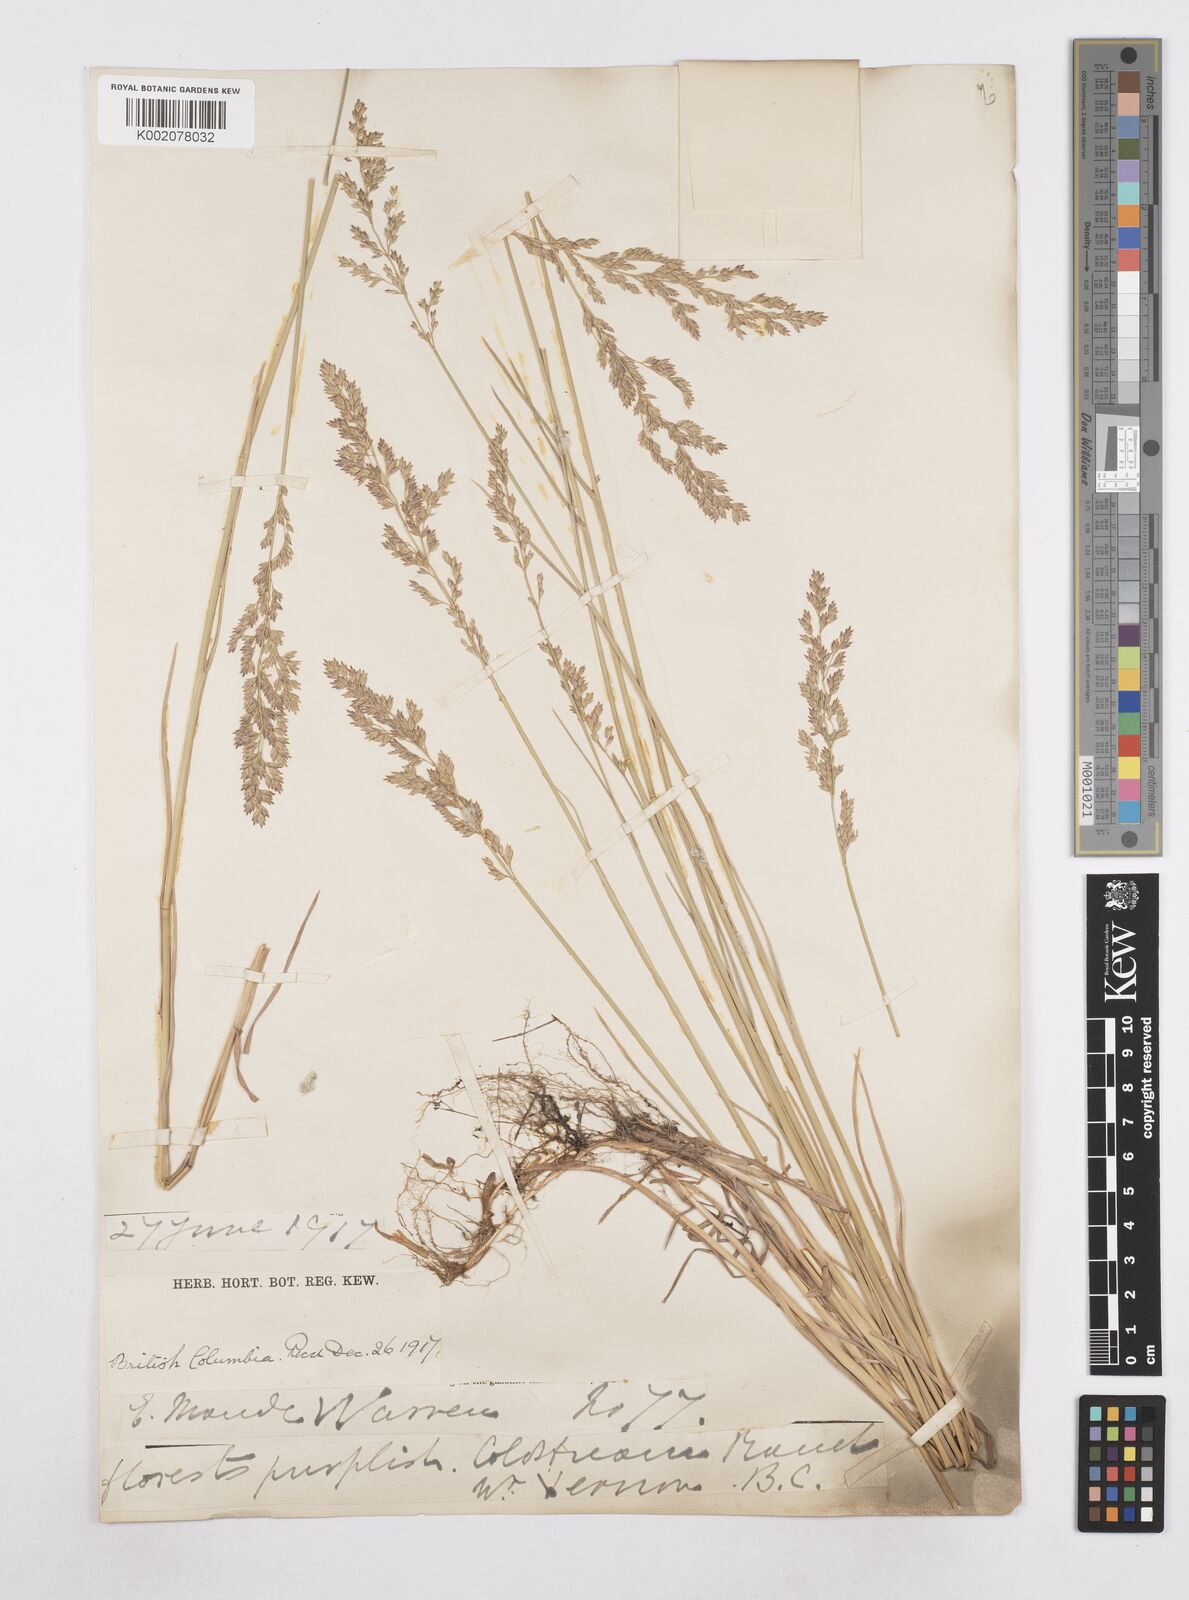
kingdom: Plantae
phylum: Tracheophyta
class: Liliopsida
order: Poales
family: Poaceae
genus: Poa
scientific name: Poa
